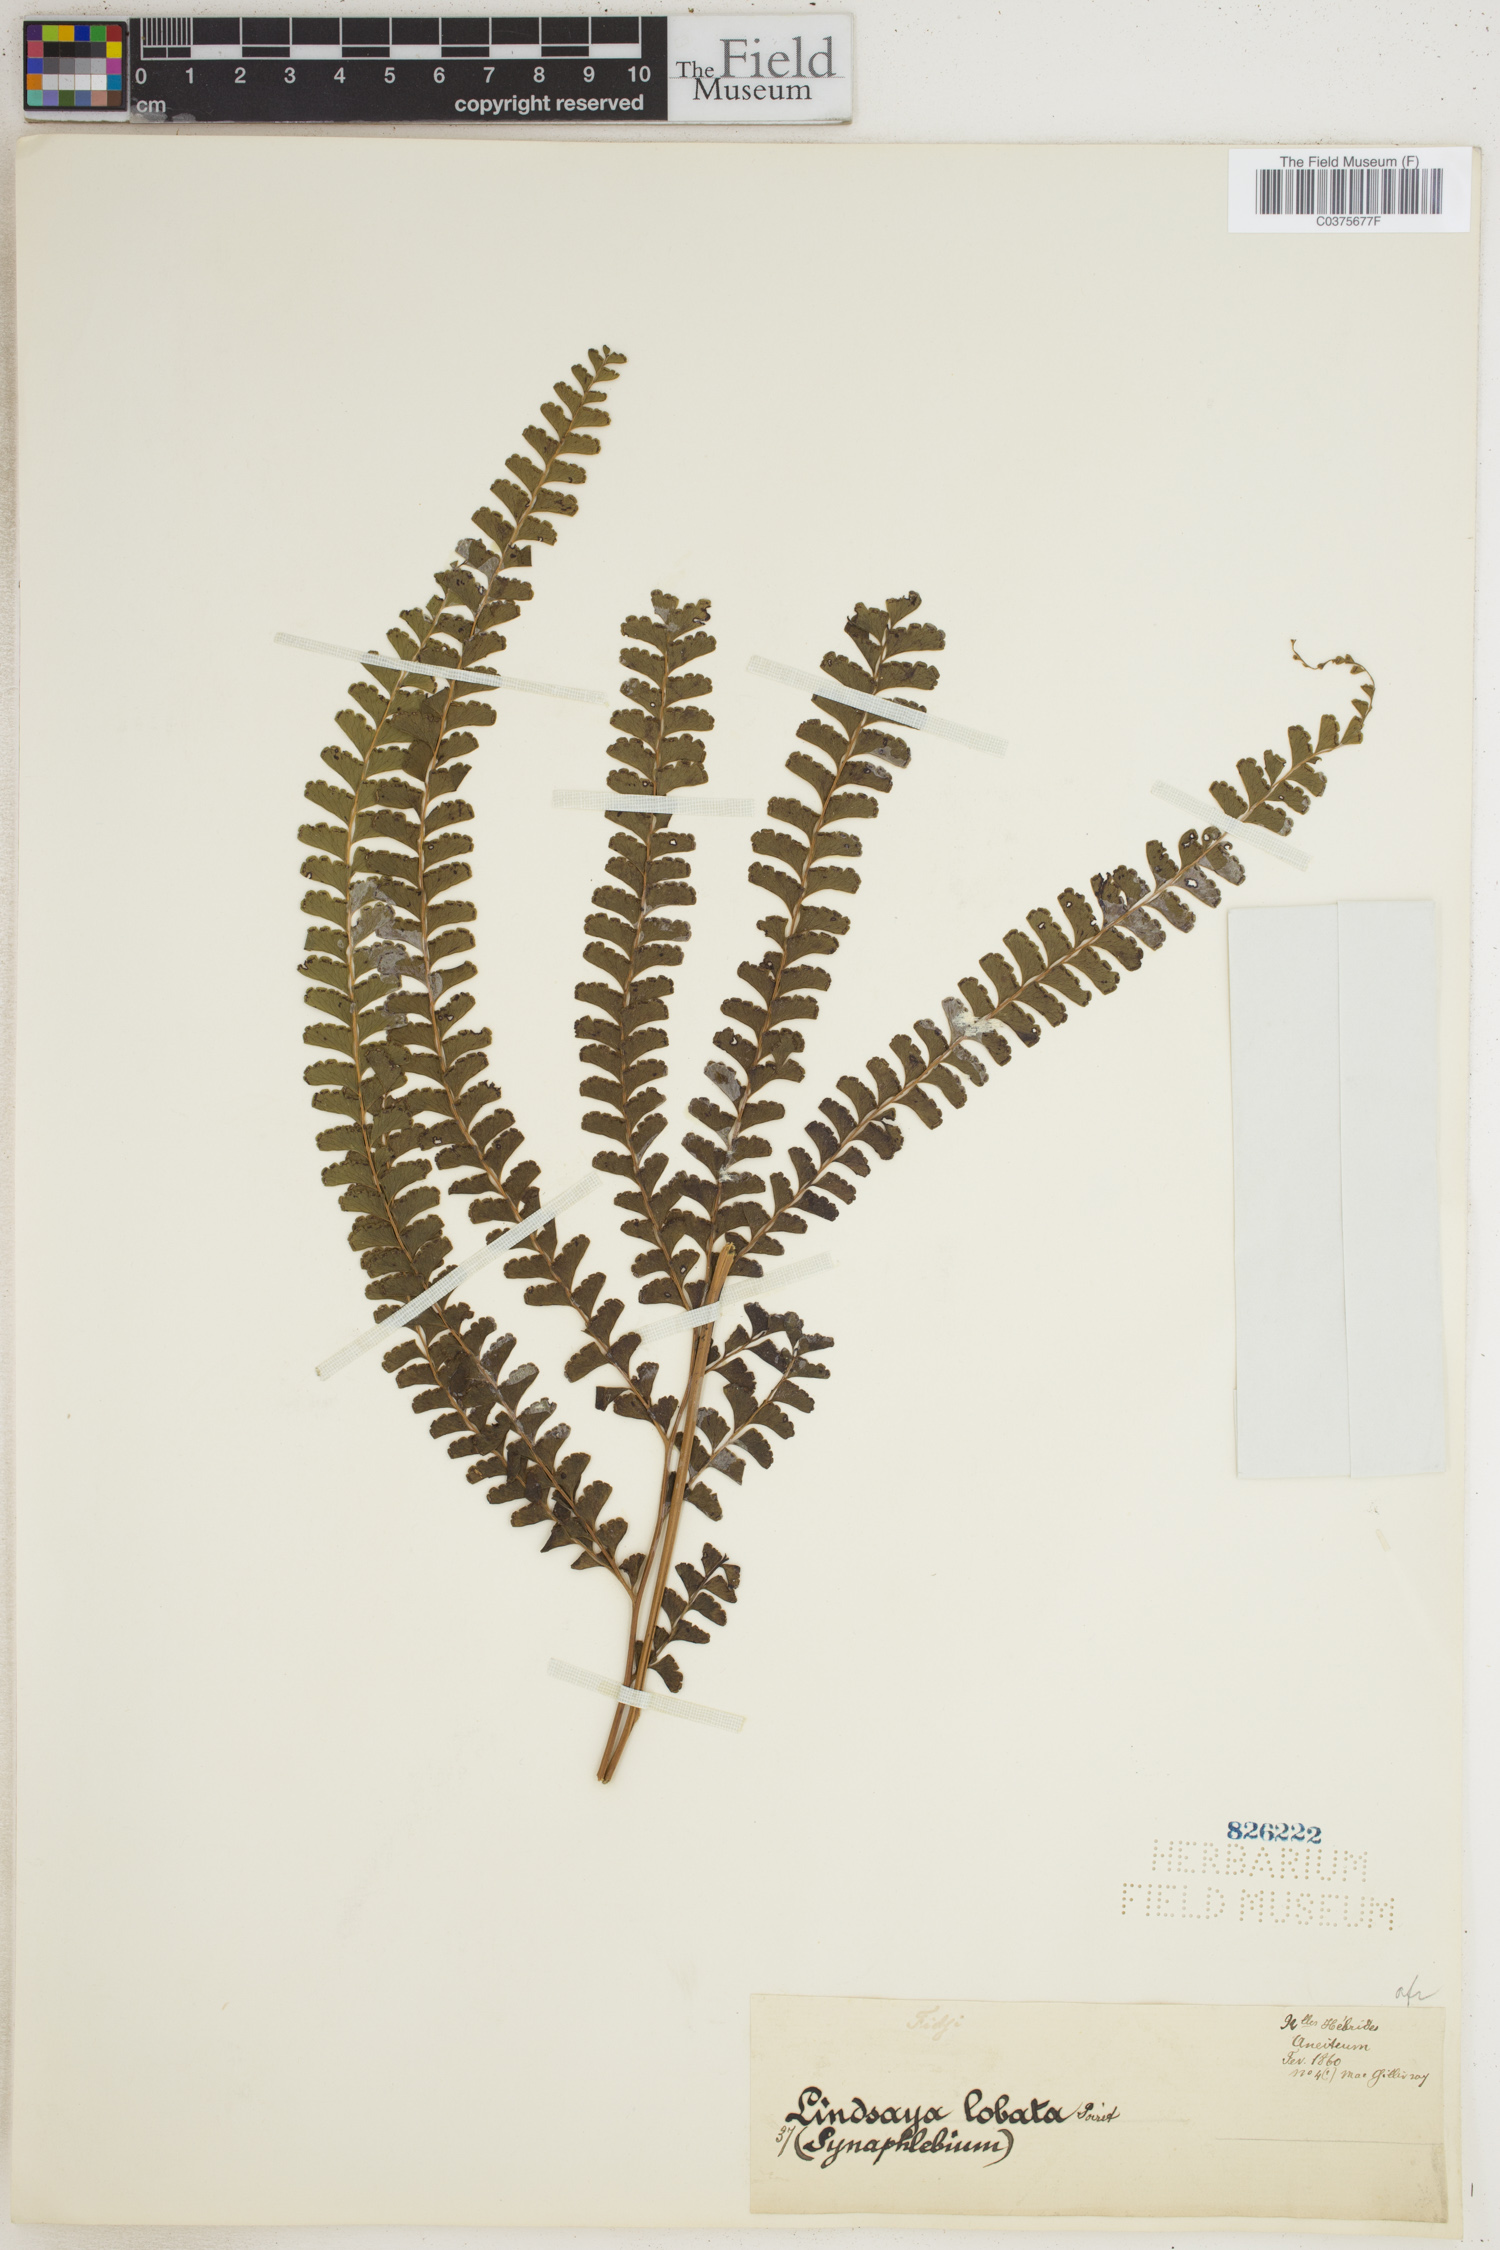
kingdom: Plantae
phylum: Tracheophyta
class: Polypodiopsida
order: Polypodiales
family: Lindsaeaceae
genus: Lindsaea
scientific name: Lindsaea lobata
